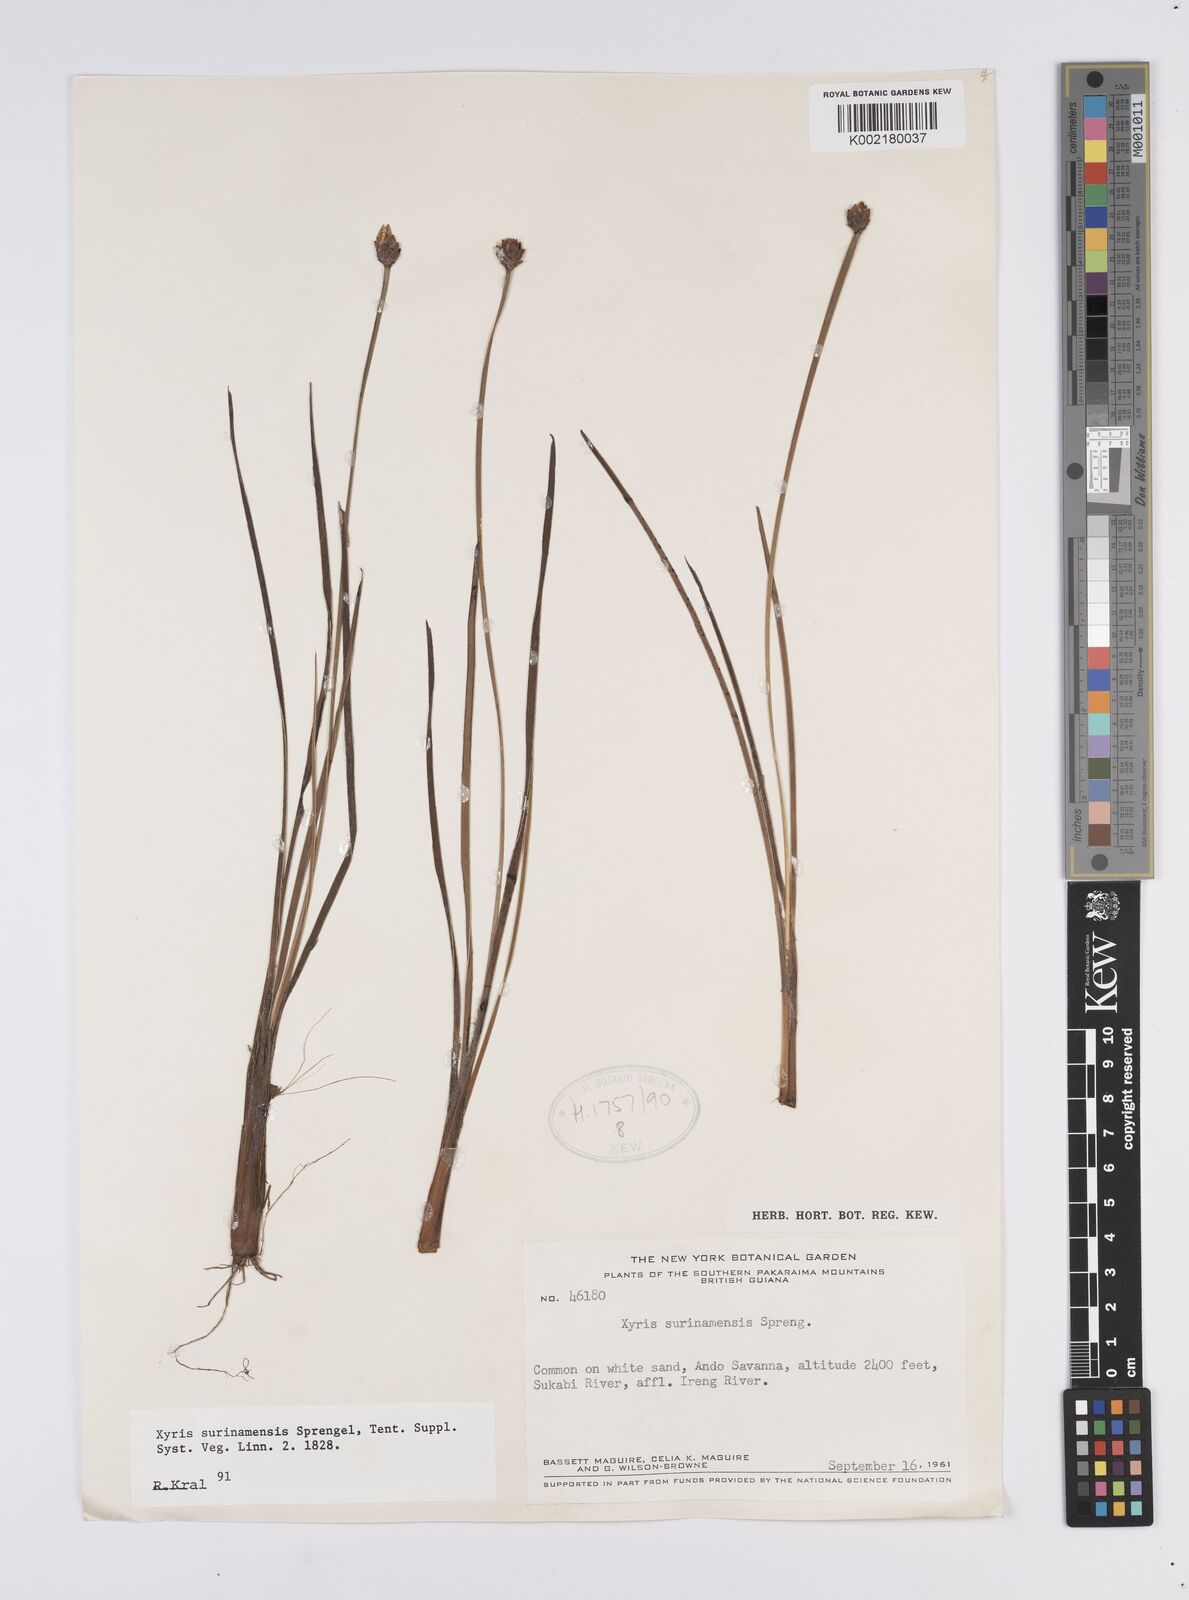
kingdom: Plantae
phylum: Tracheophyta
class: Liliopsida
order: Poales
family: Xyridaceae
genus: Xyris
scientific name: Xyris surinamensis
